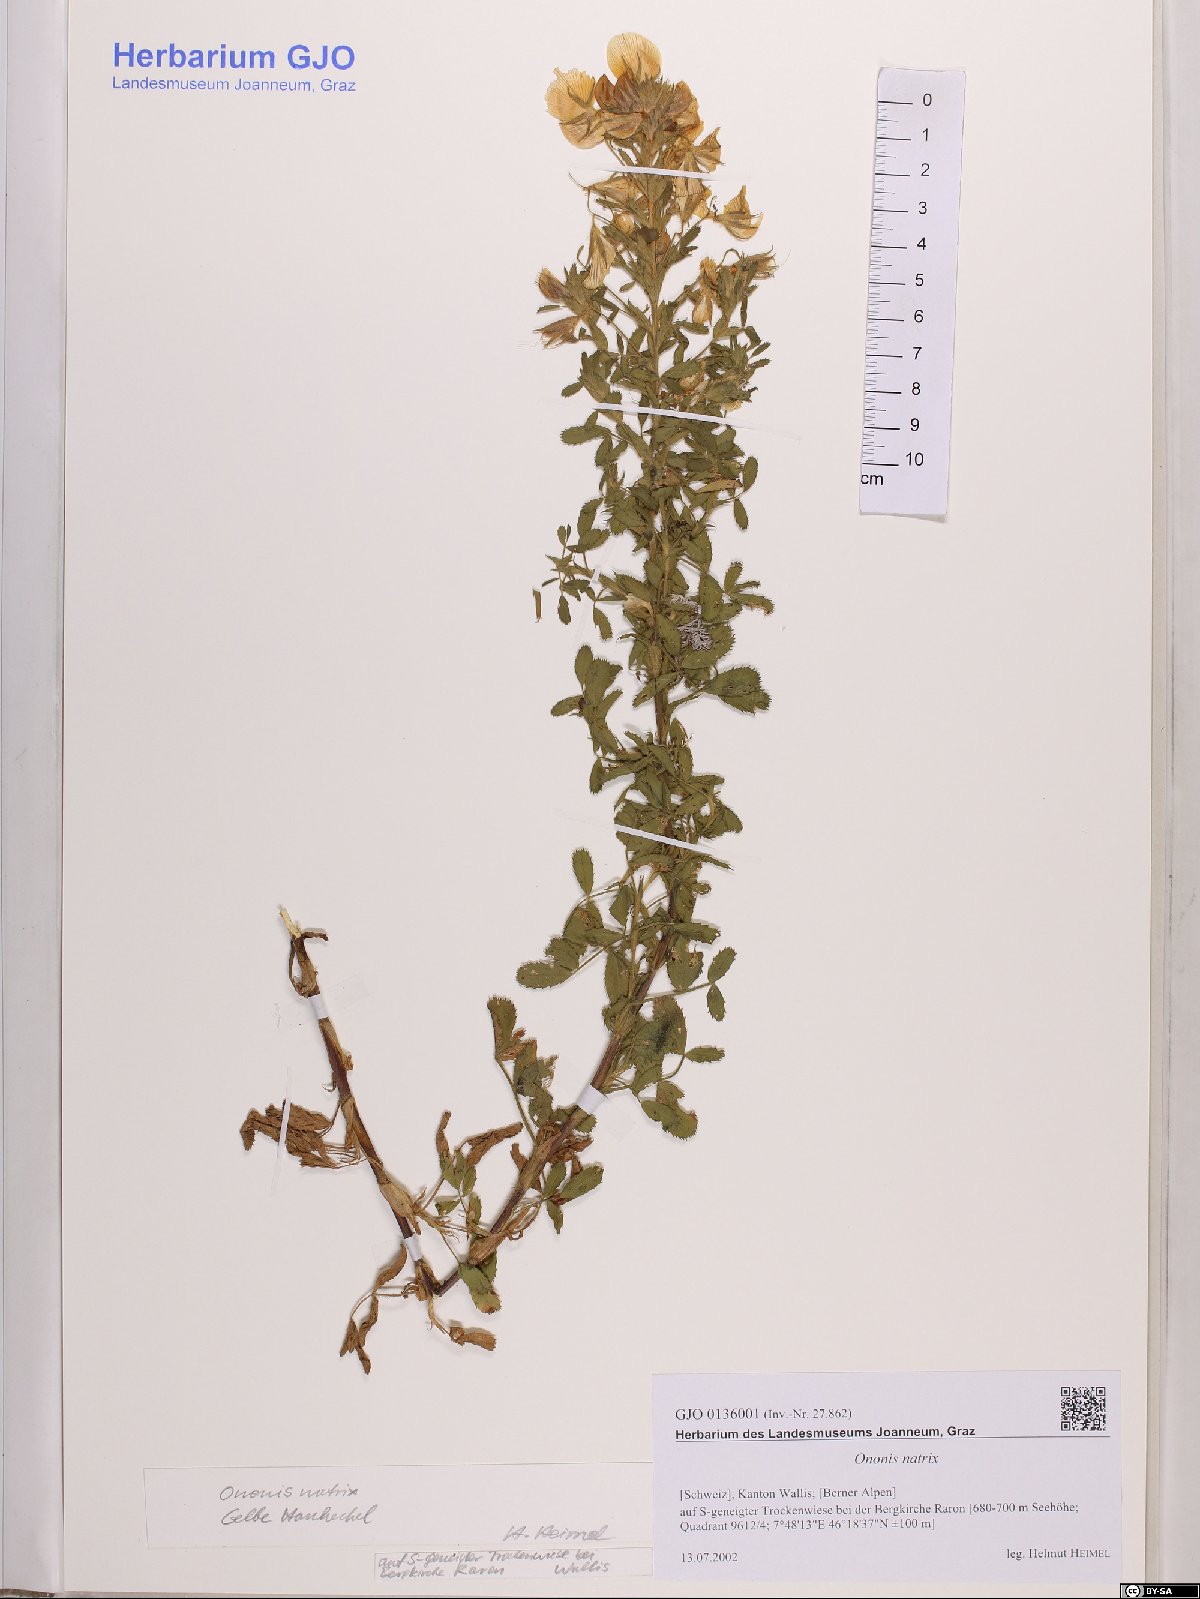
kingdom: Plantae
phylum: Tracheophyta
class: Magnoliopsida
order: Fabales
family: Fabaceae
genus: Ononis
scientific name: Ononis natrix
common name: Yellow restharrow
